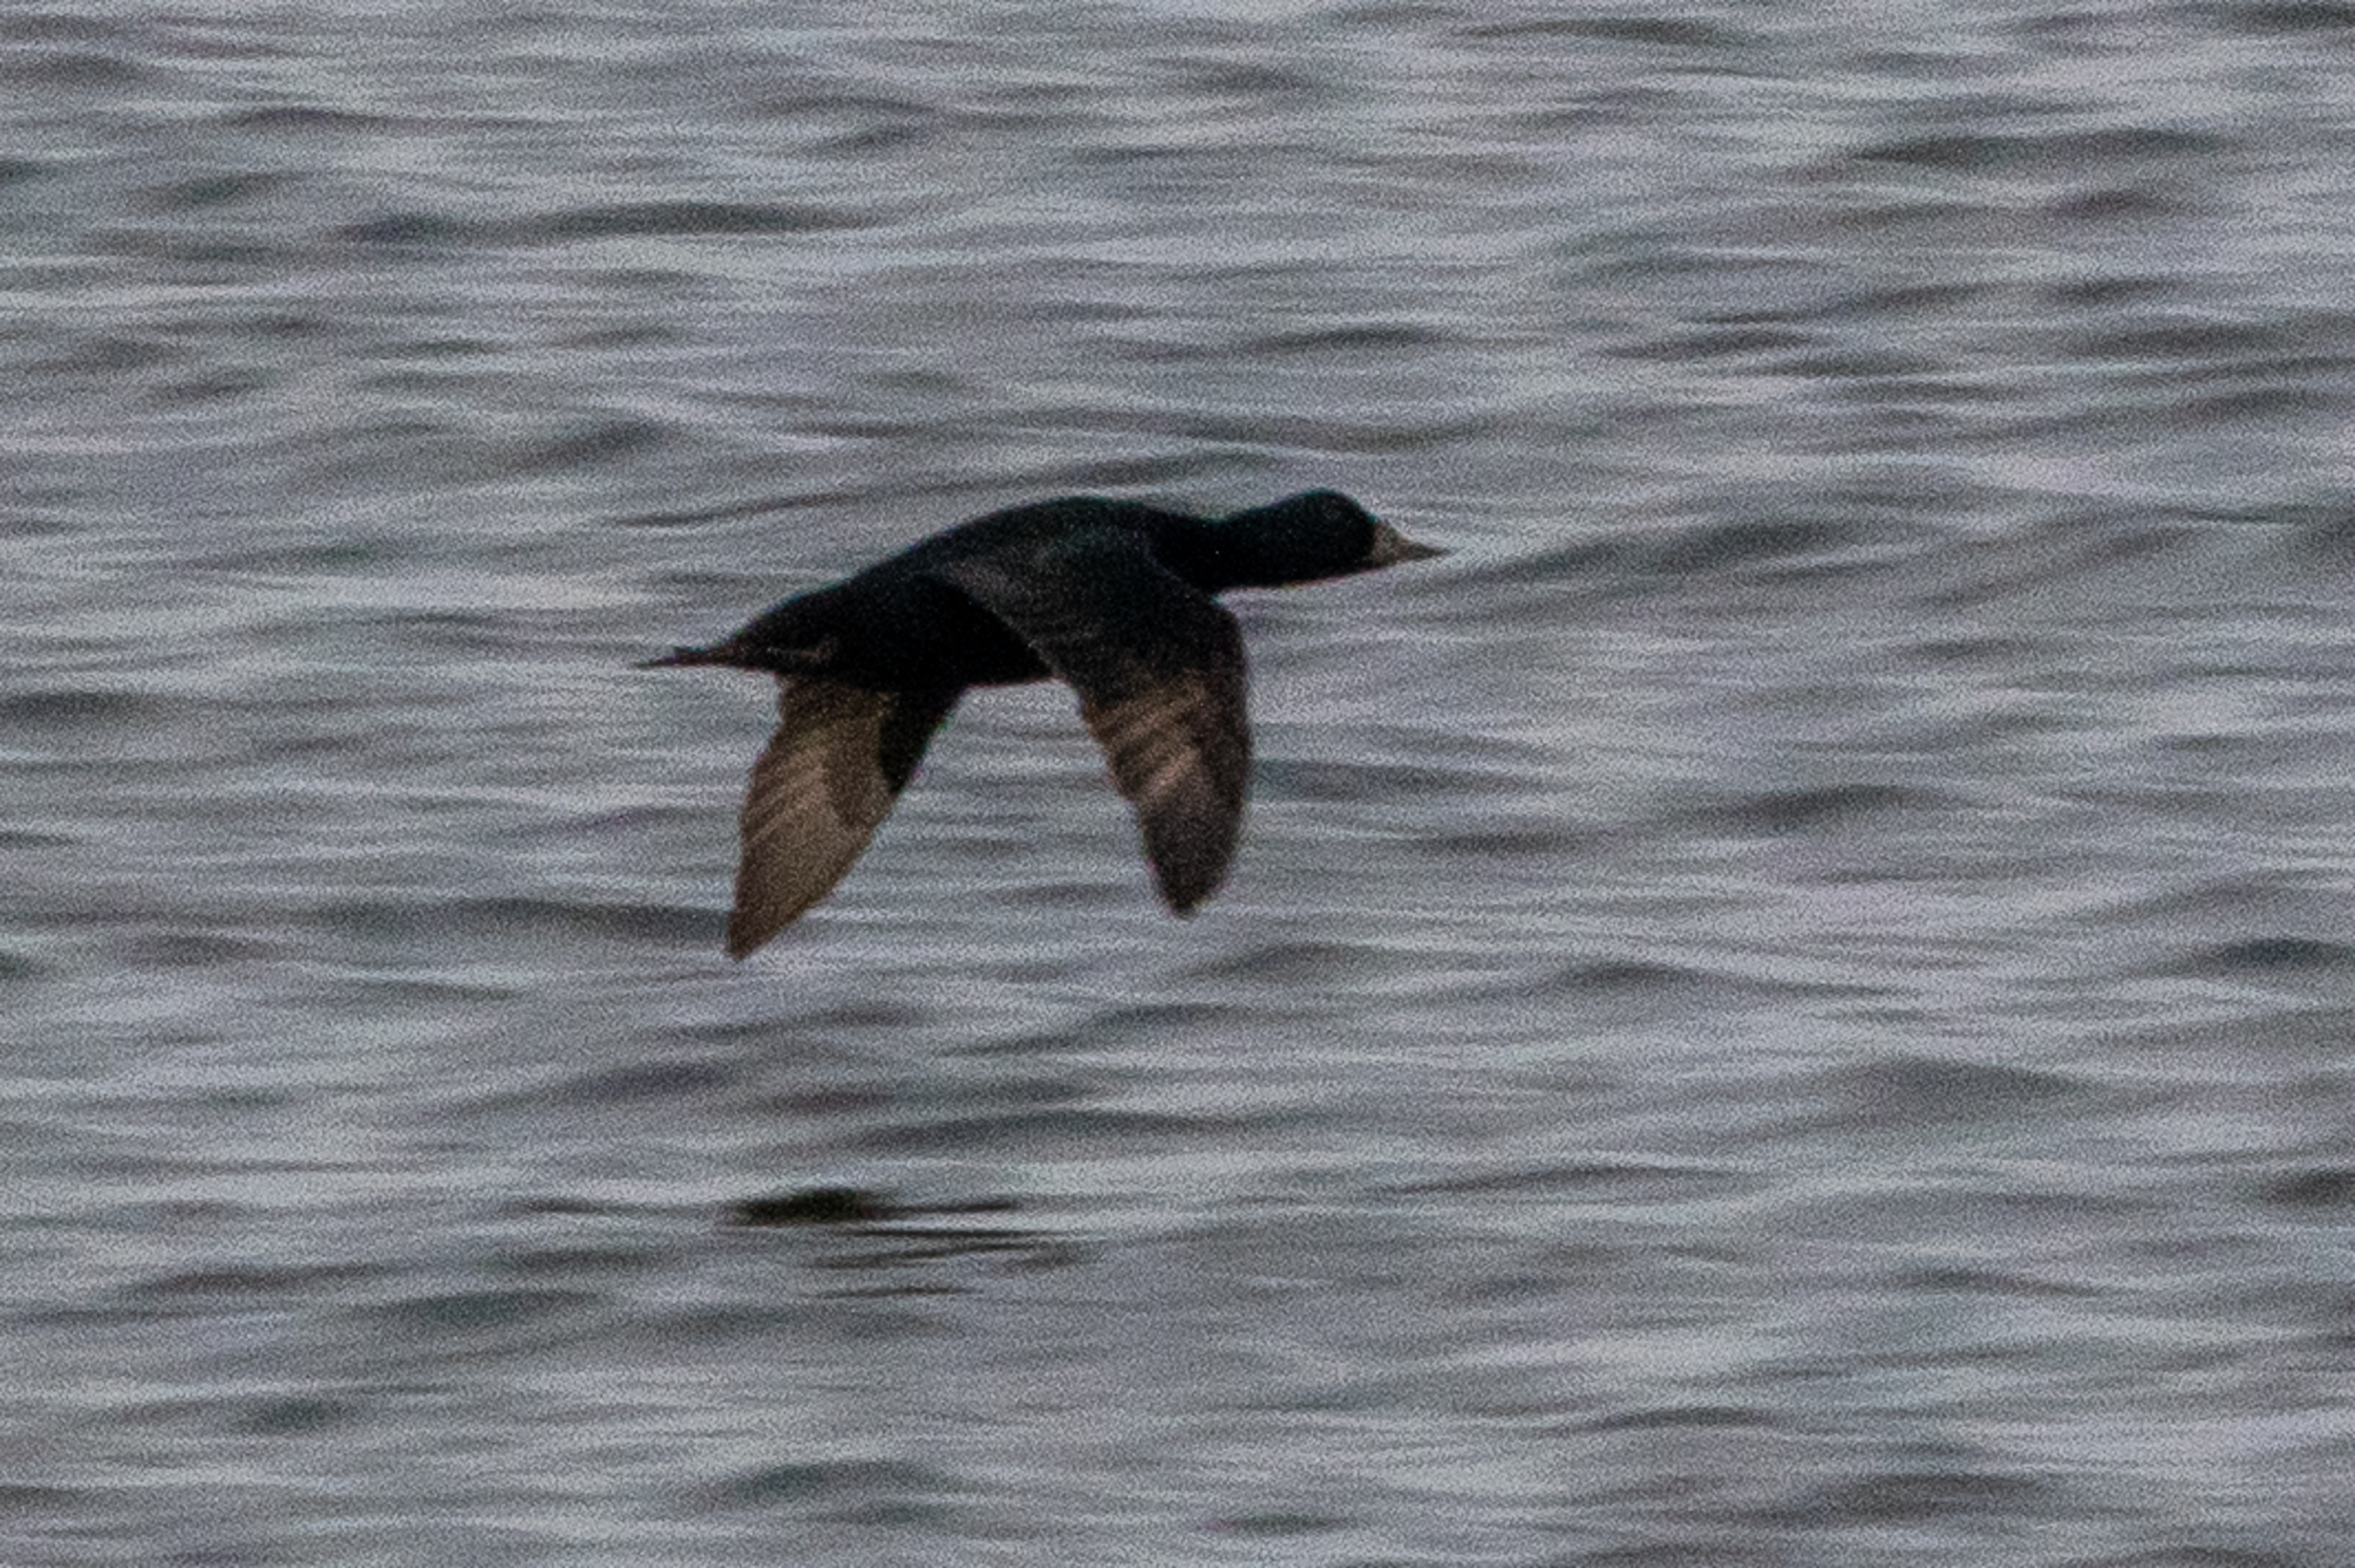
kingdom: Animalia
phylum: Chordata
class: Aves
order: Anseriformes
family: Anatidae
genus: Melanitta
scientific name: Melanitta nigra
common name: Sortand
